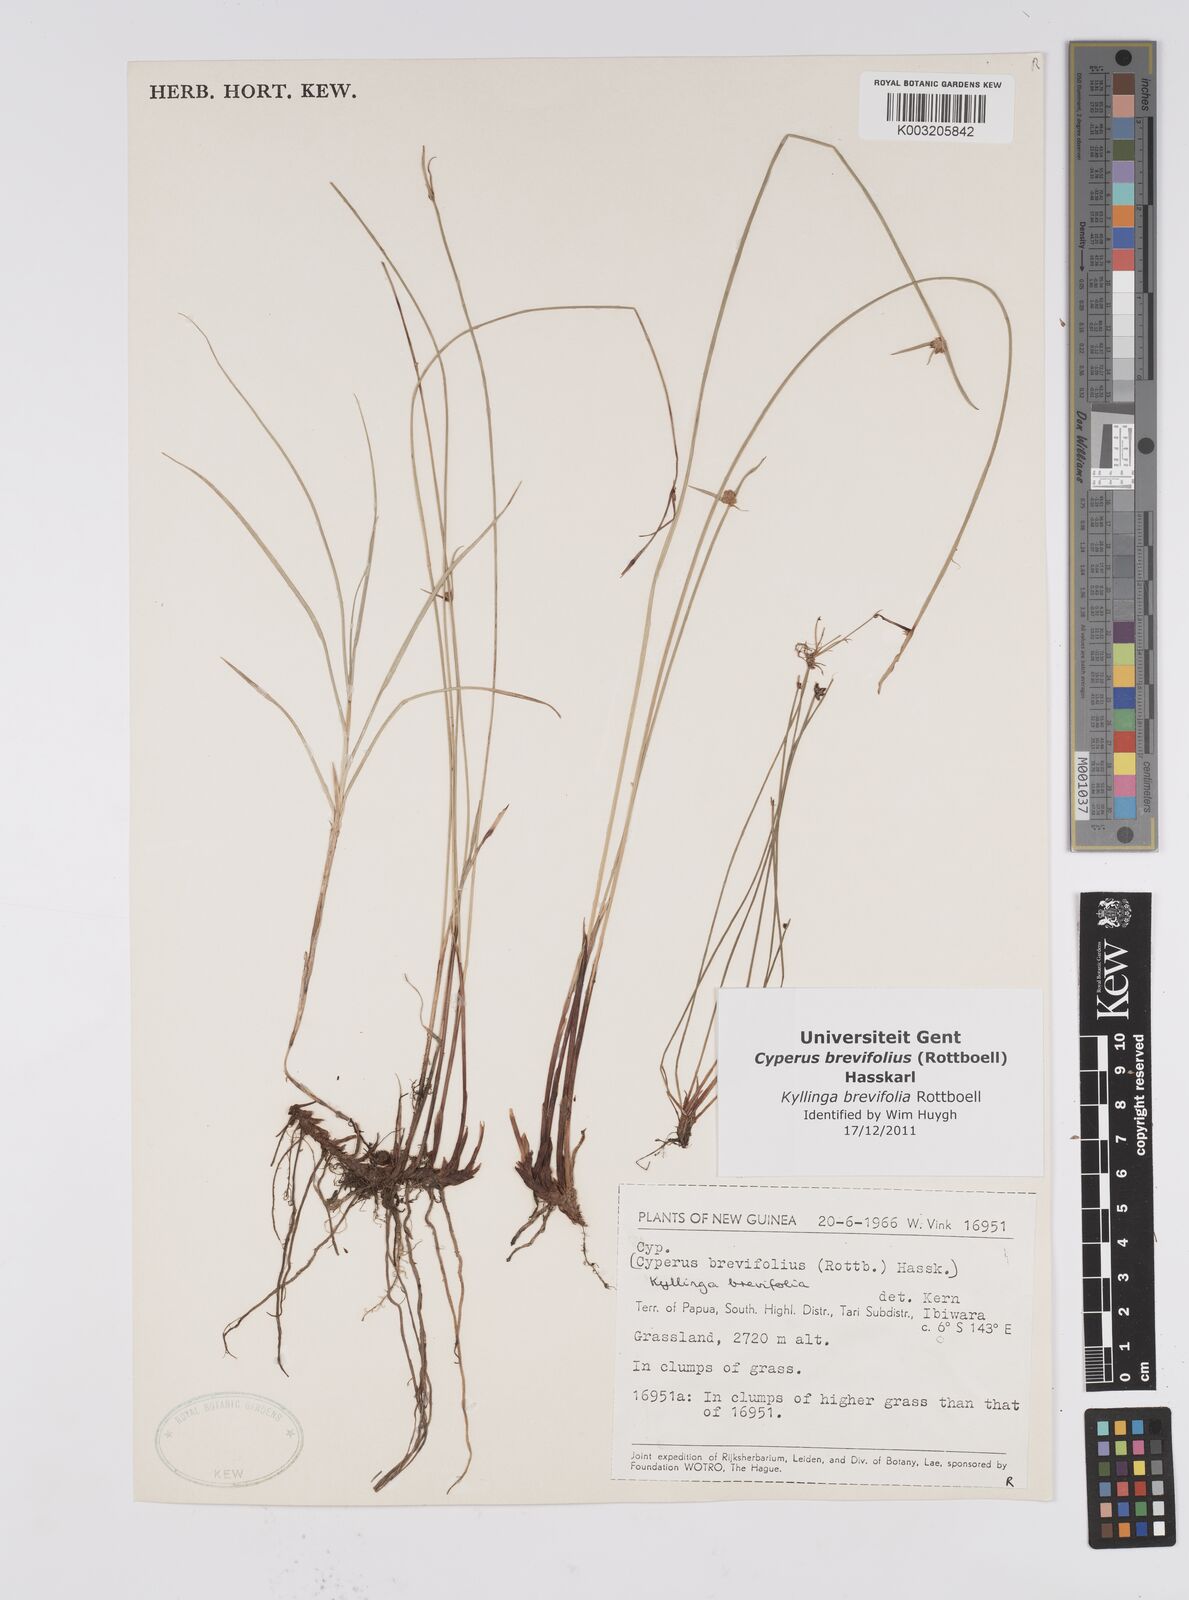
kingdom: Plantae
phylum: Tracheophyta
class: Liliopsida
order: Poales
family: Cyperaceae
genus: Cyperus
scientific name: Cyperus brevifolius
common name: Globe kyllinga
